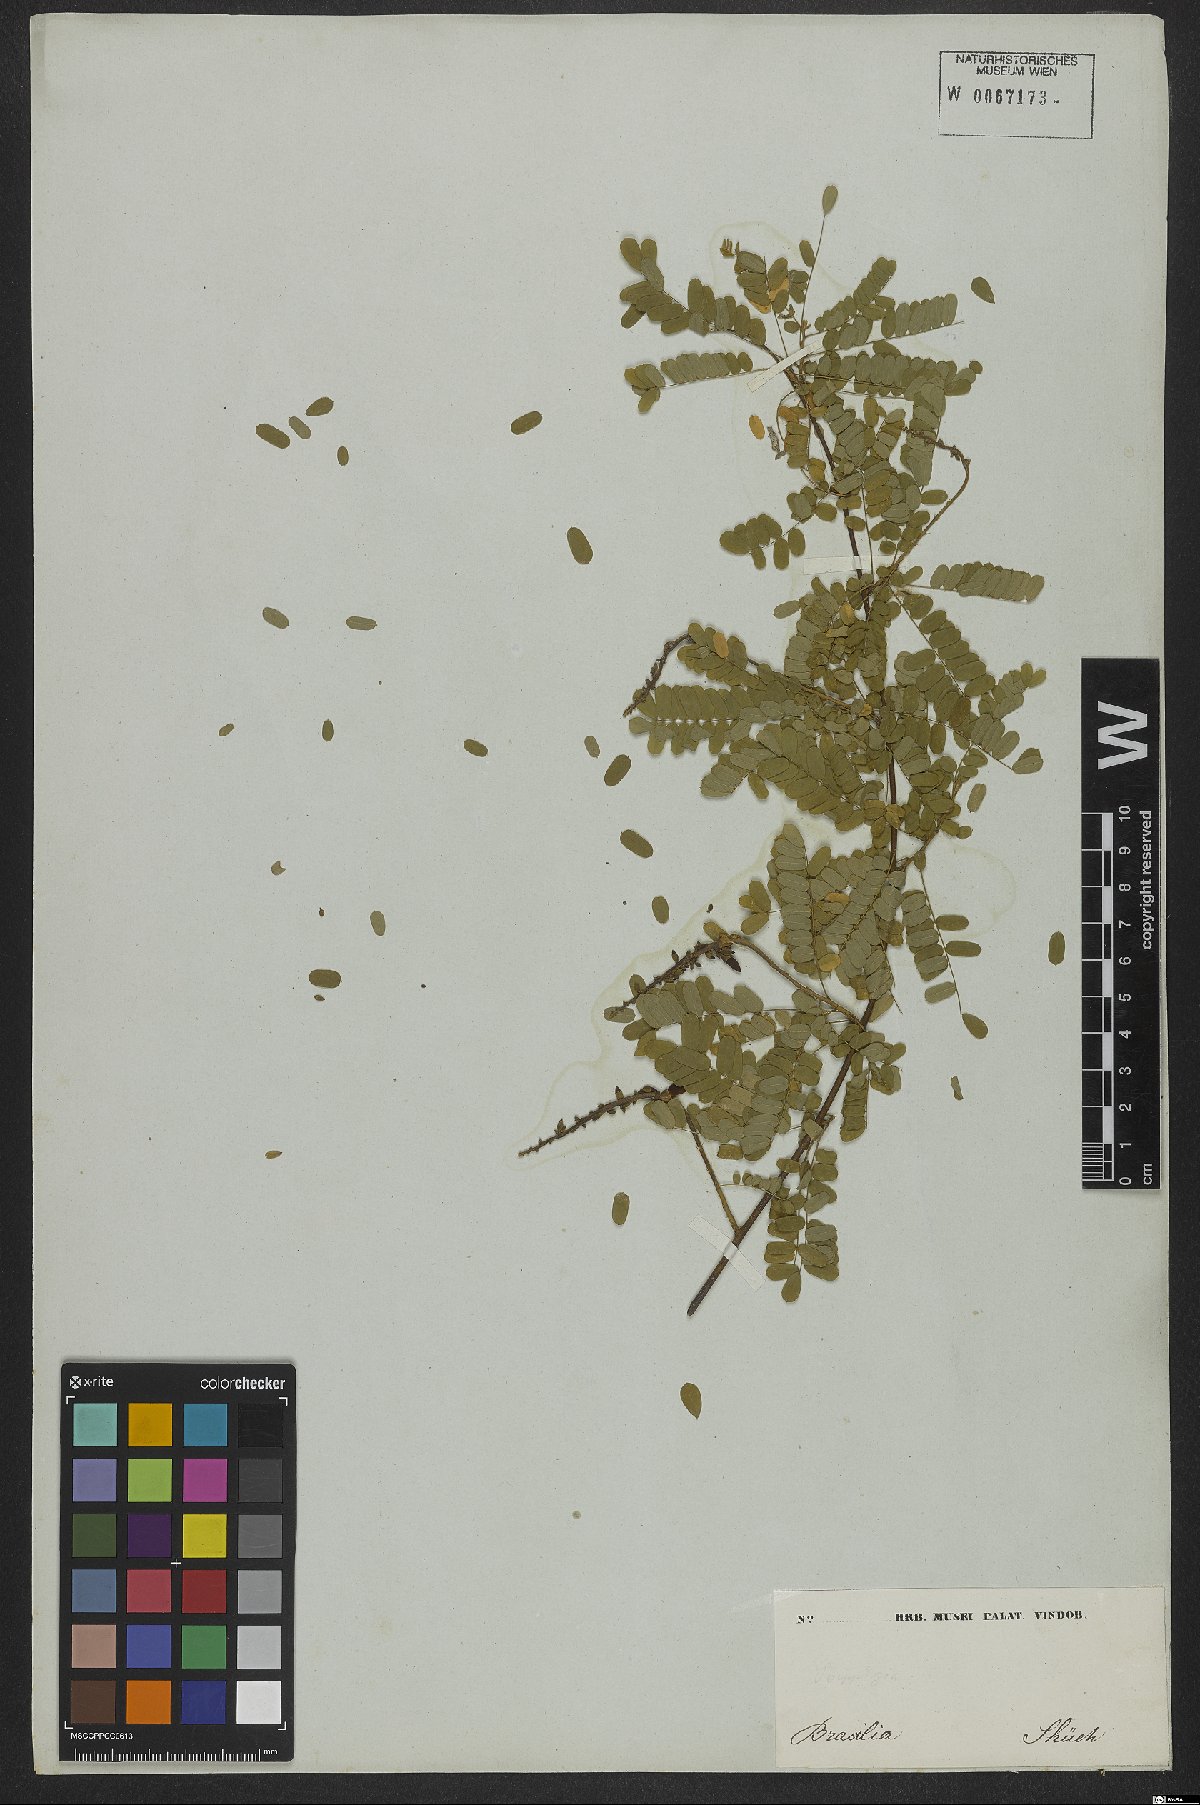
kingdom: Plantae
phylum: Tracheophyta
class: Magnoliopsida
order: Fabales
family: Fabaceae
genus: Abrus
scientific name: Abrus
